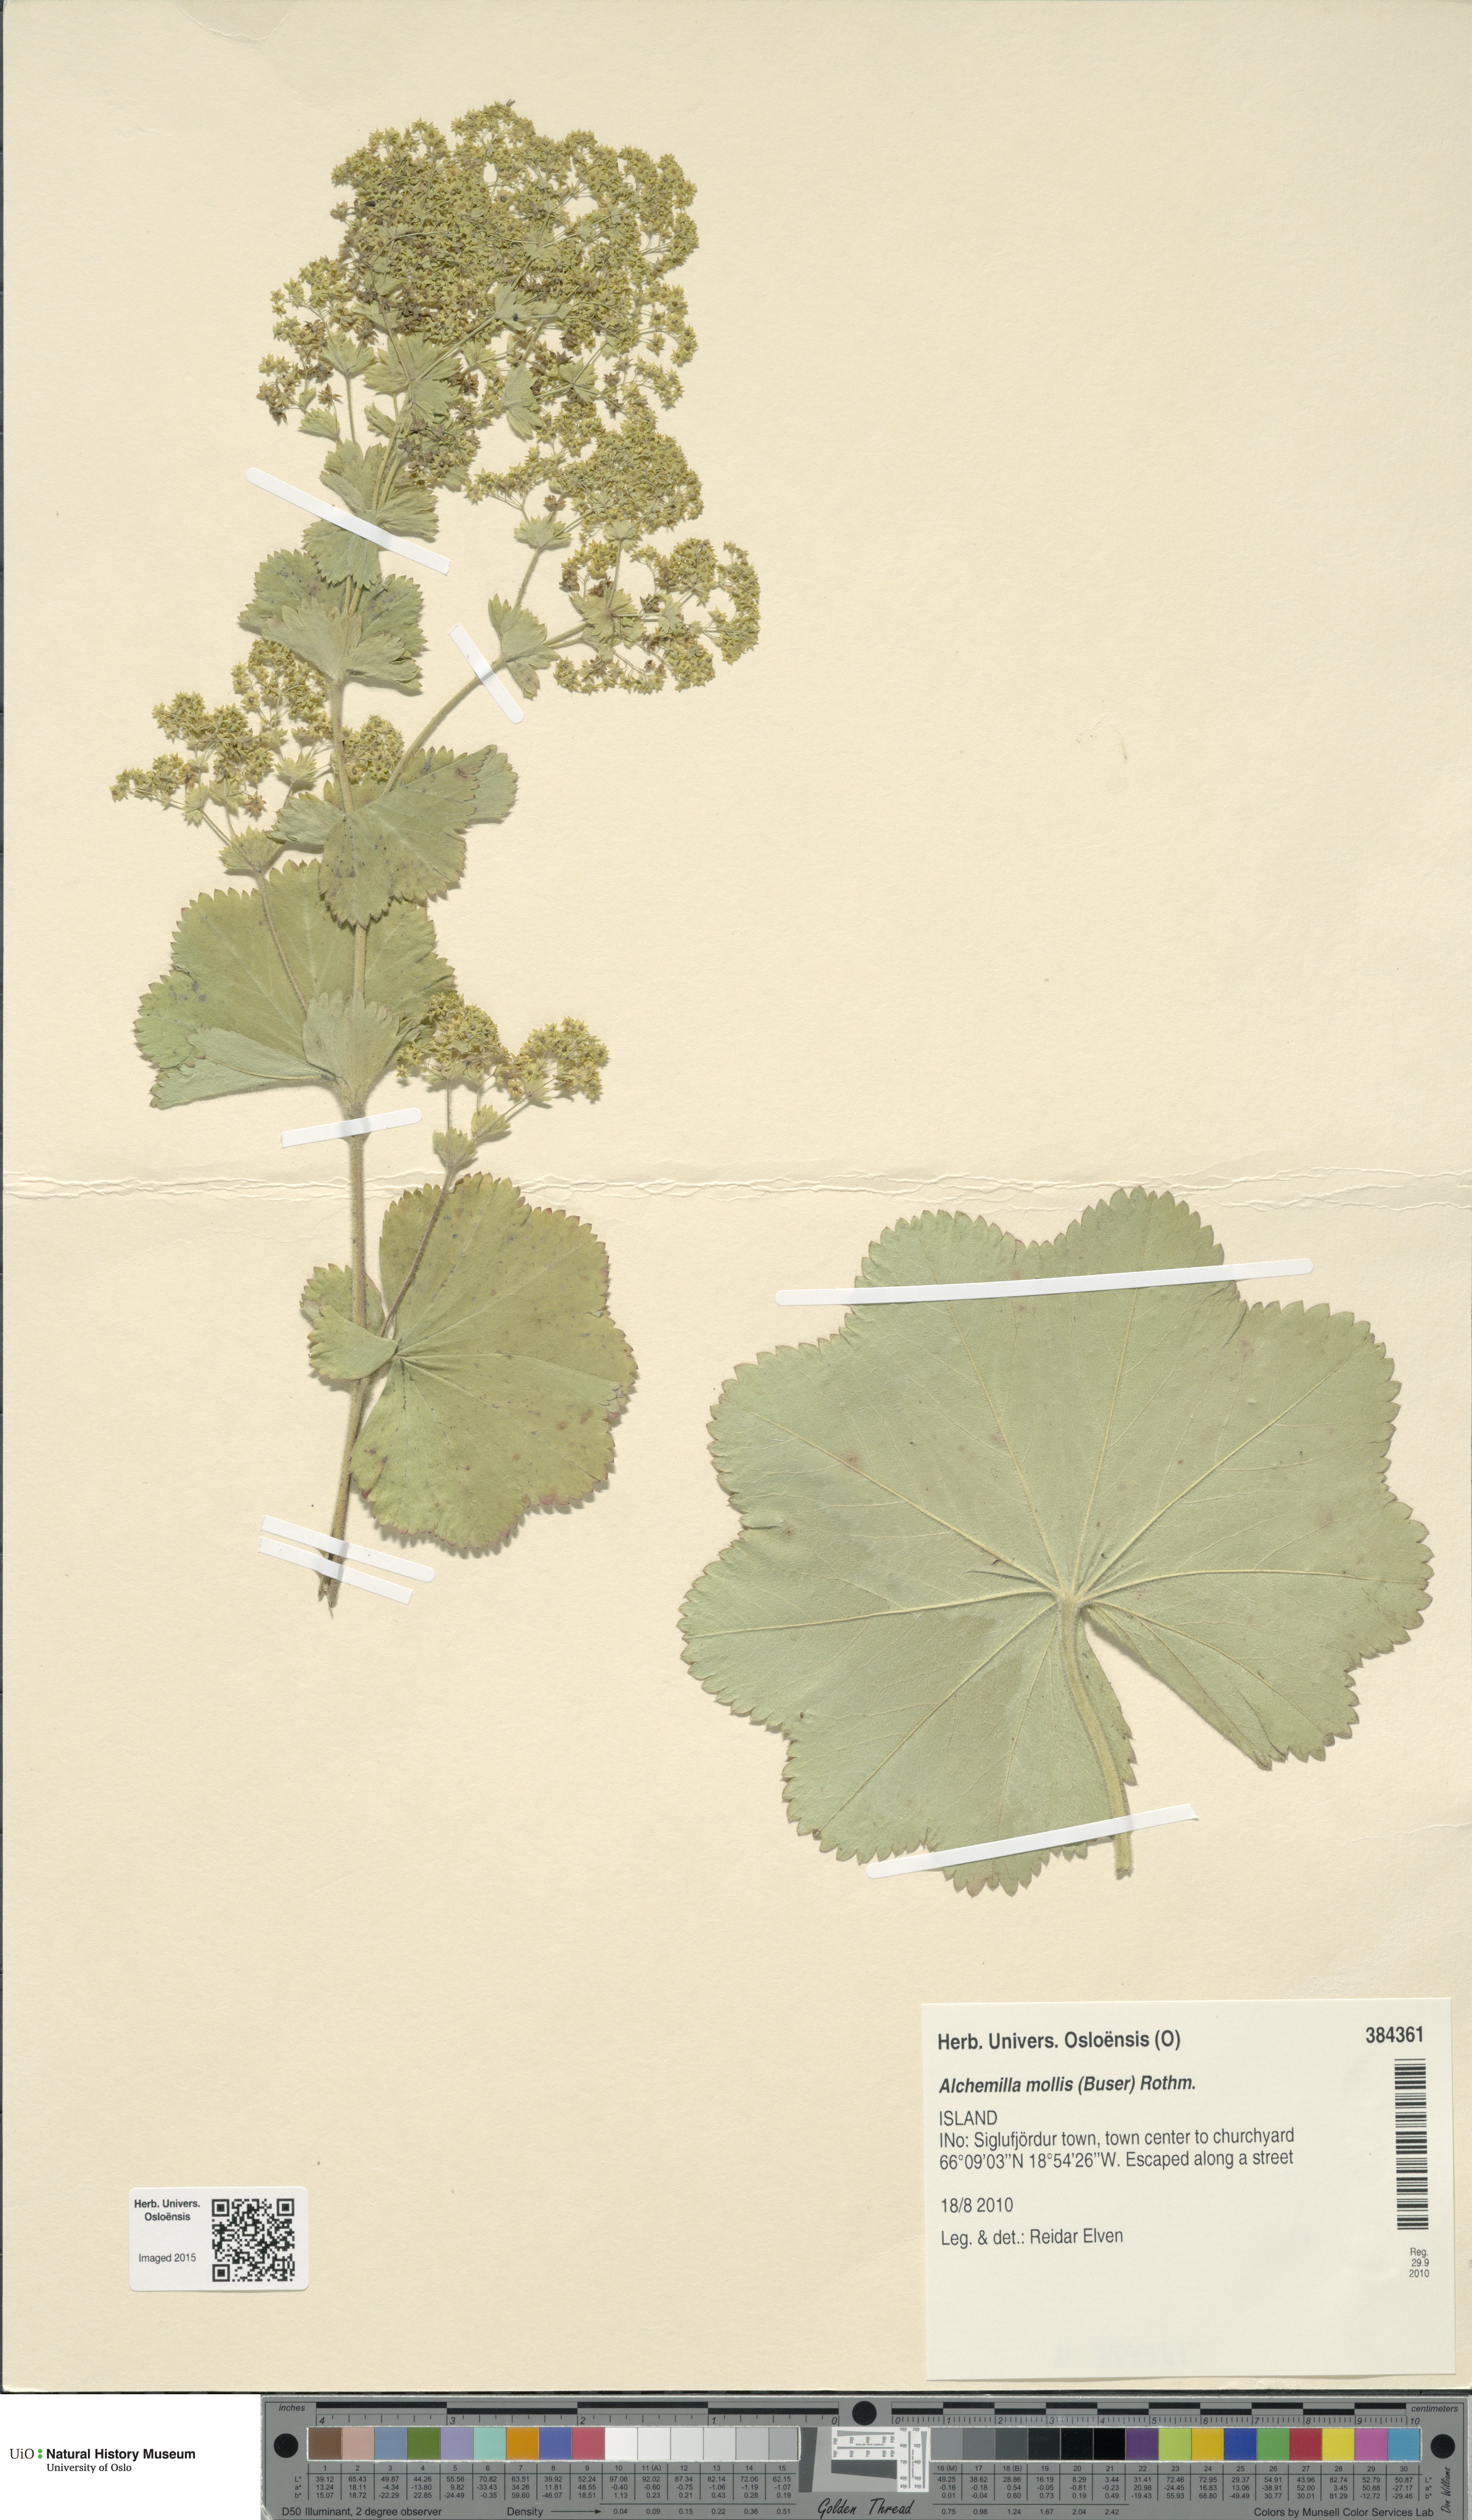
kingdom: Plantae
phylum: Tracheophyta
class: Magnoliopsida
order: Rosales
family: Rosaceae
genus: Alchemilla
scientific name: Alchemilla mollis
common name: Lady's-mantle
